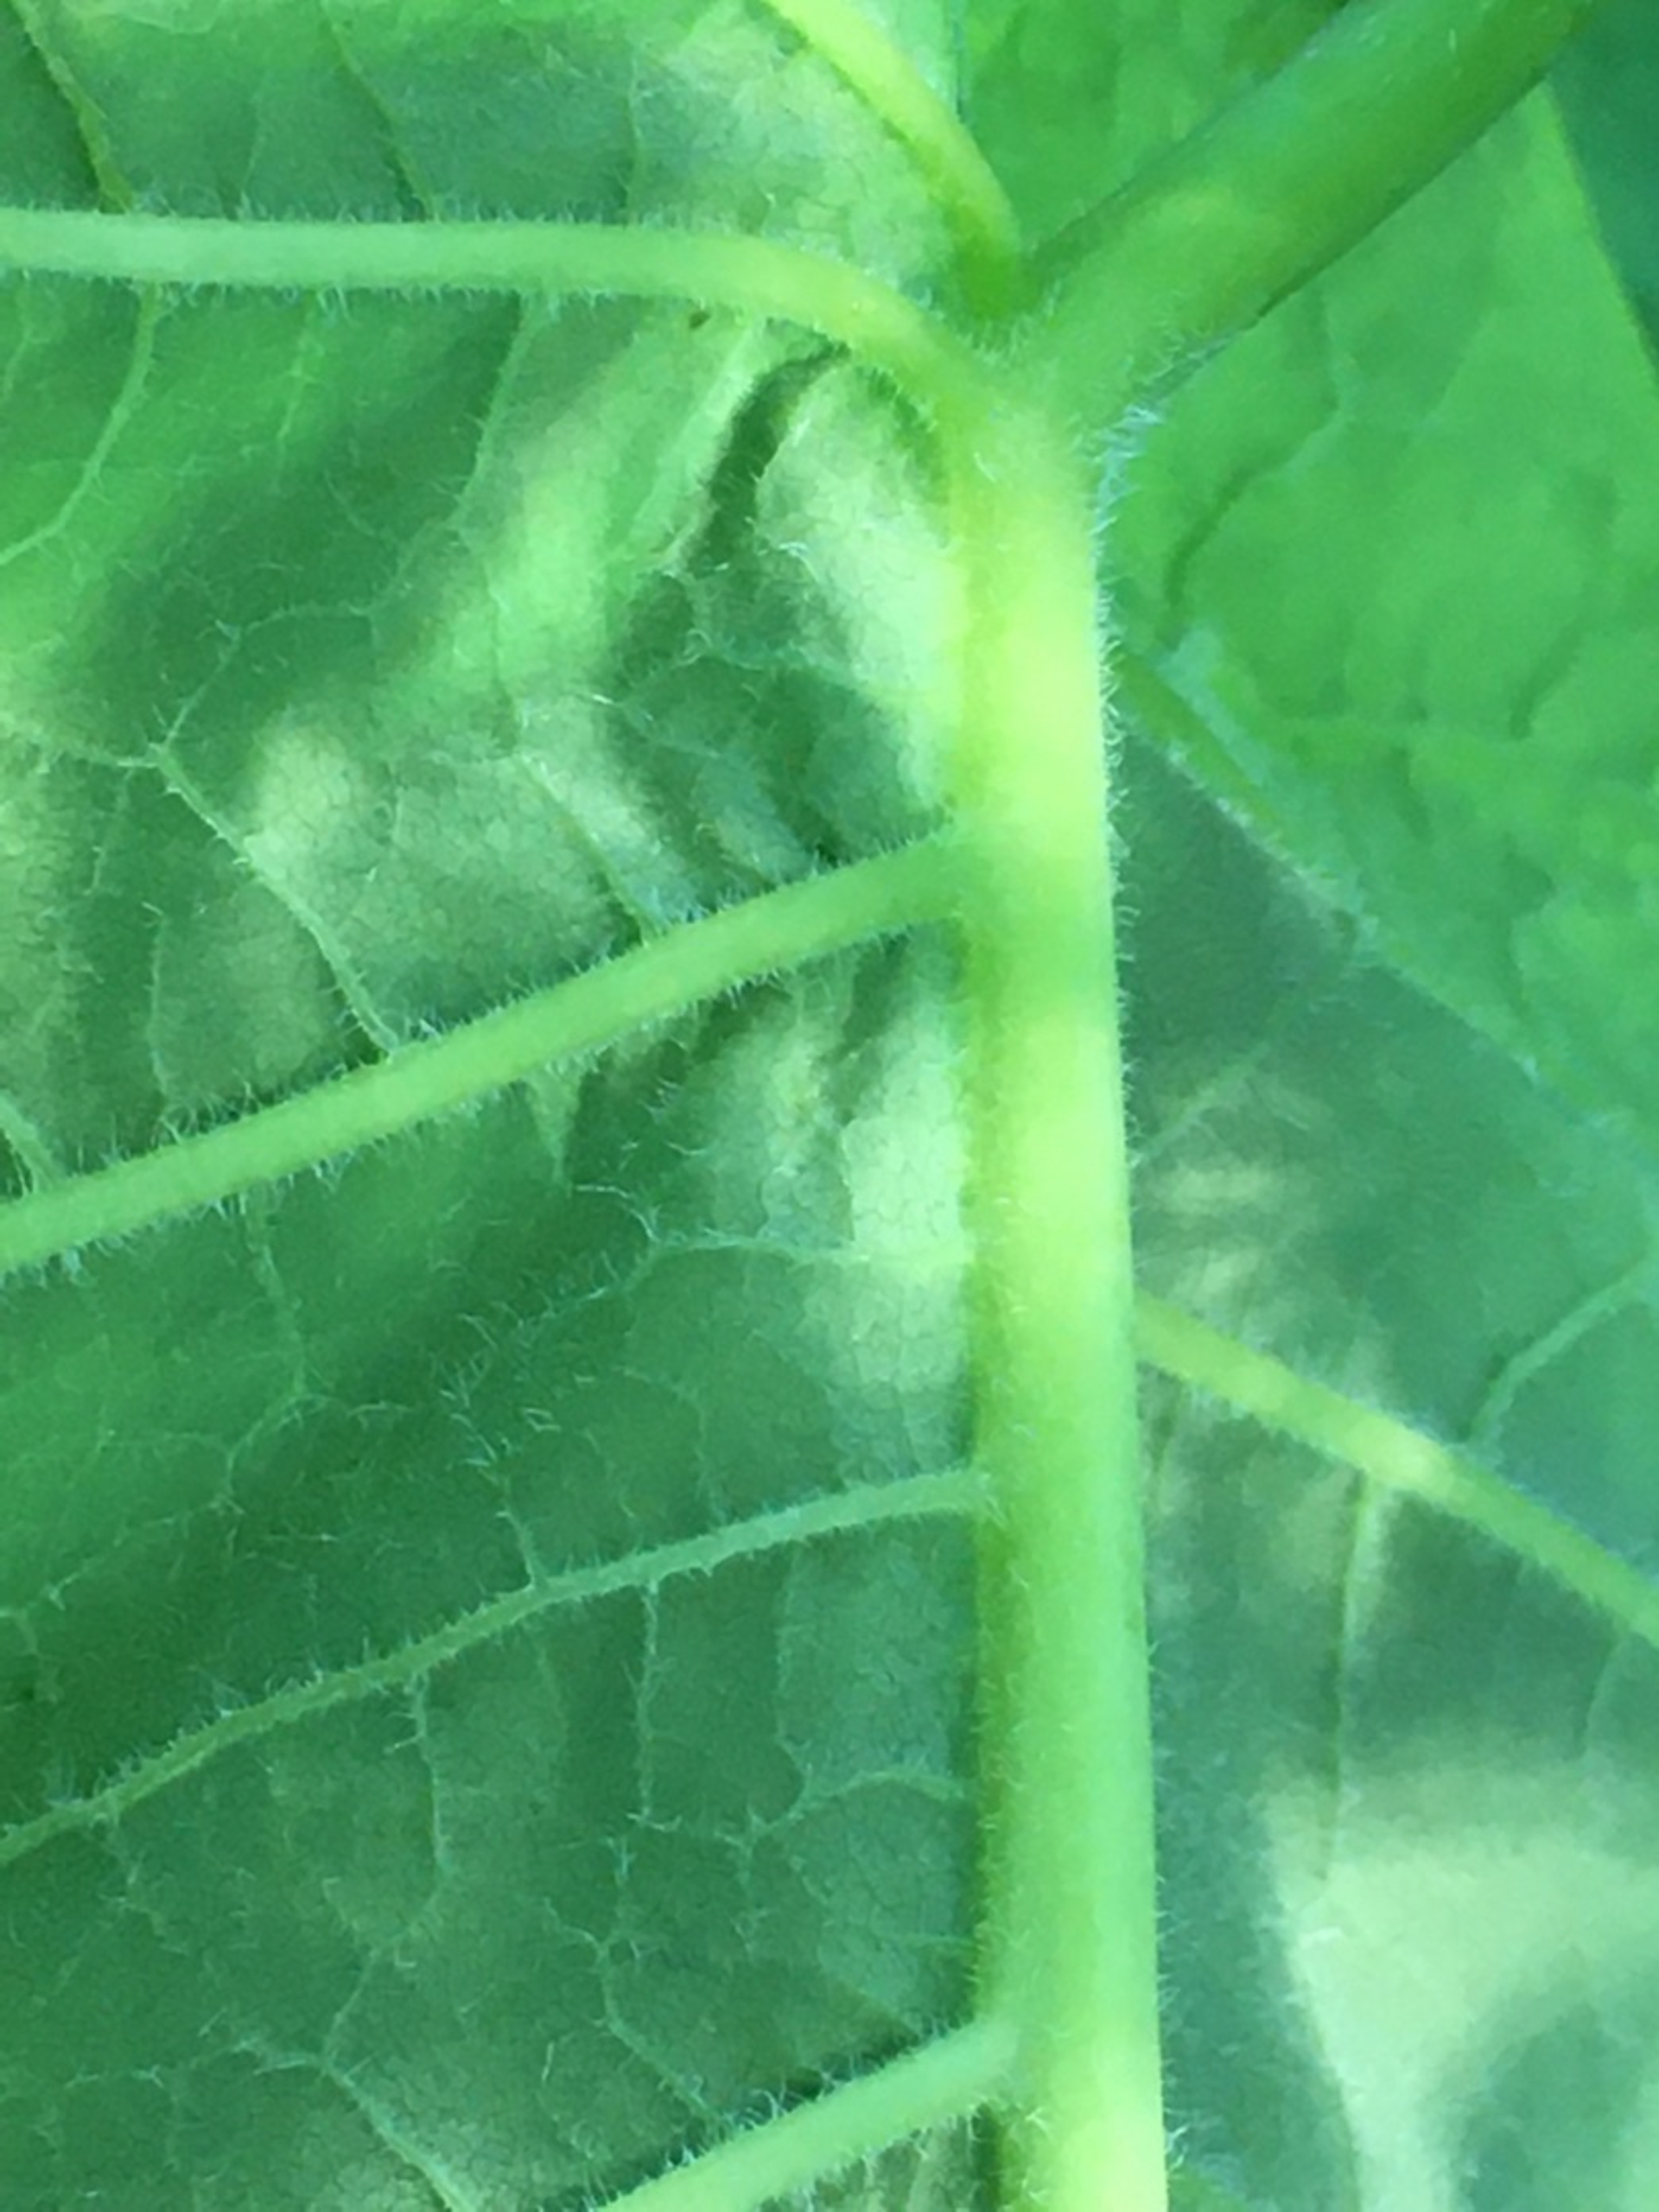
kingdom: Plantae
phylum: Tracheophyta
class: Magnoliopsida
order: Caryophyllales
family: Polygonaceae
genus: Reynoutria
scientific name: Reynoutria sachalinensis
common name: Kæmpe-pileurt
